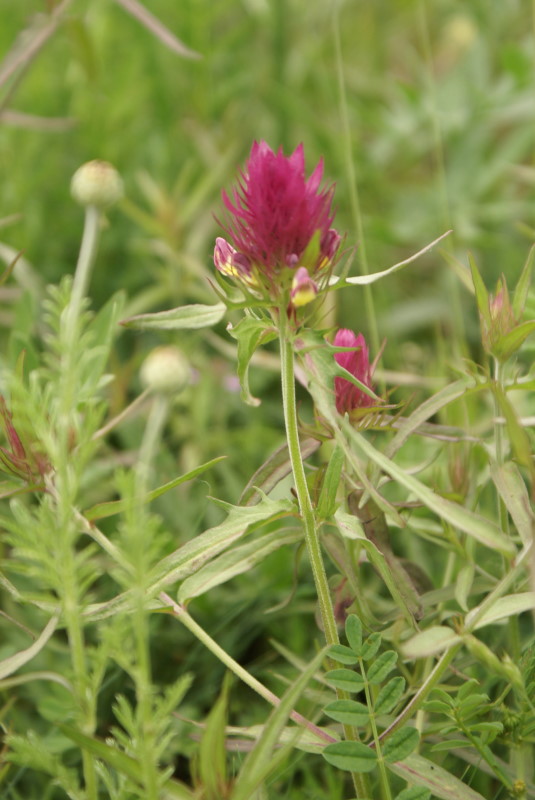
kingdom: Plantae
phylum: Tracheophyta
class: Magnoliopsida
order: Lamiales
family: Orobanchaceae
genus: Melampyrum
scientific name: Melampyrum arvense
